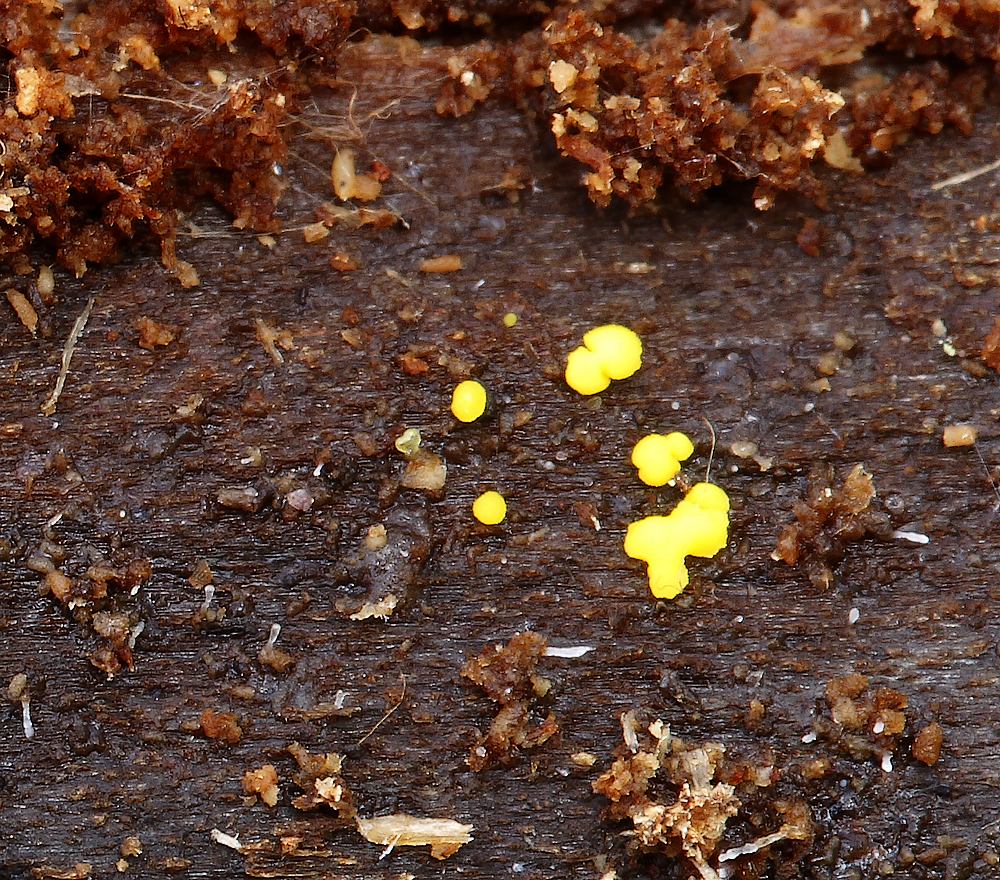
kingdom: Fungi
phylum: Ascomycota
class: Leotiomycetes
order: Helotiales
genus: Lemalis
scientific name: Lemalis aurea
